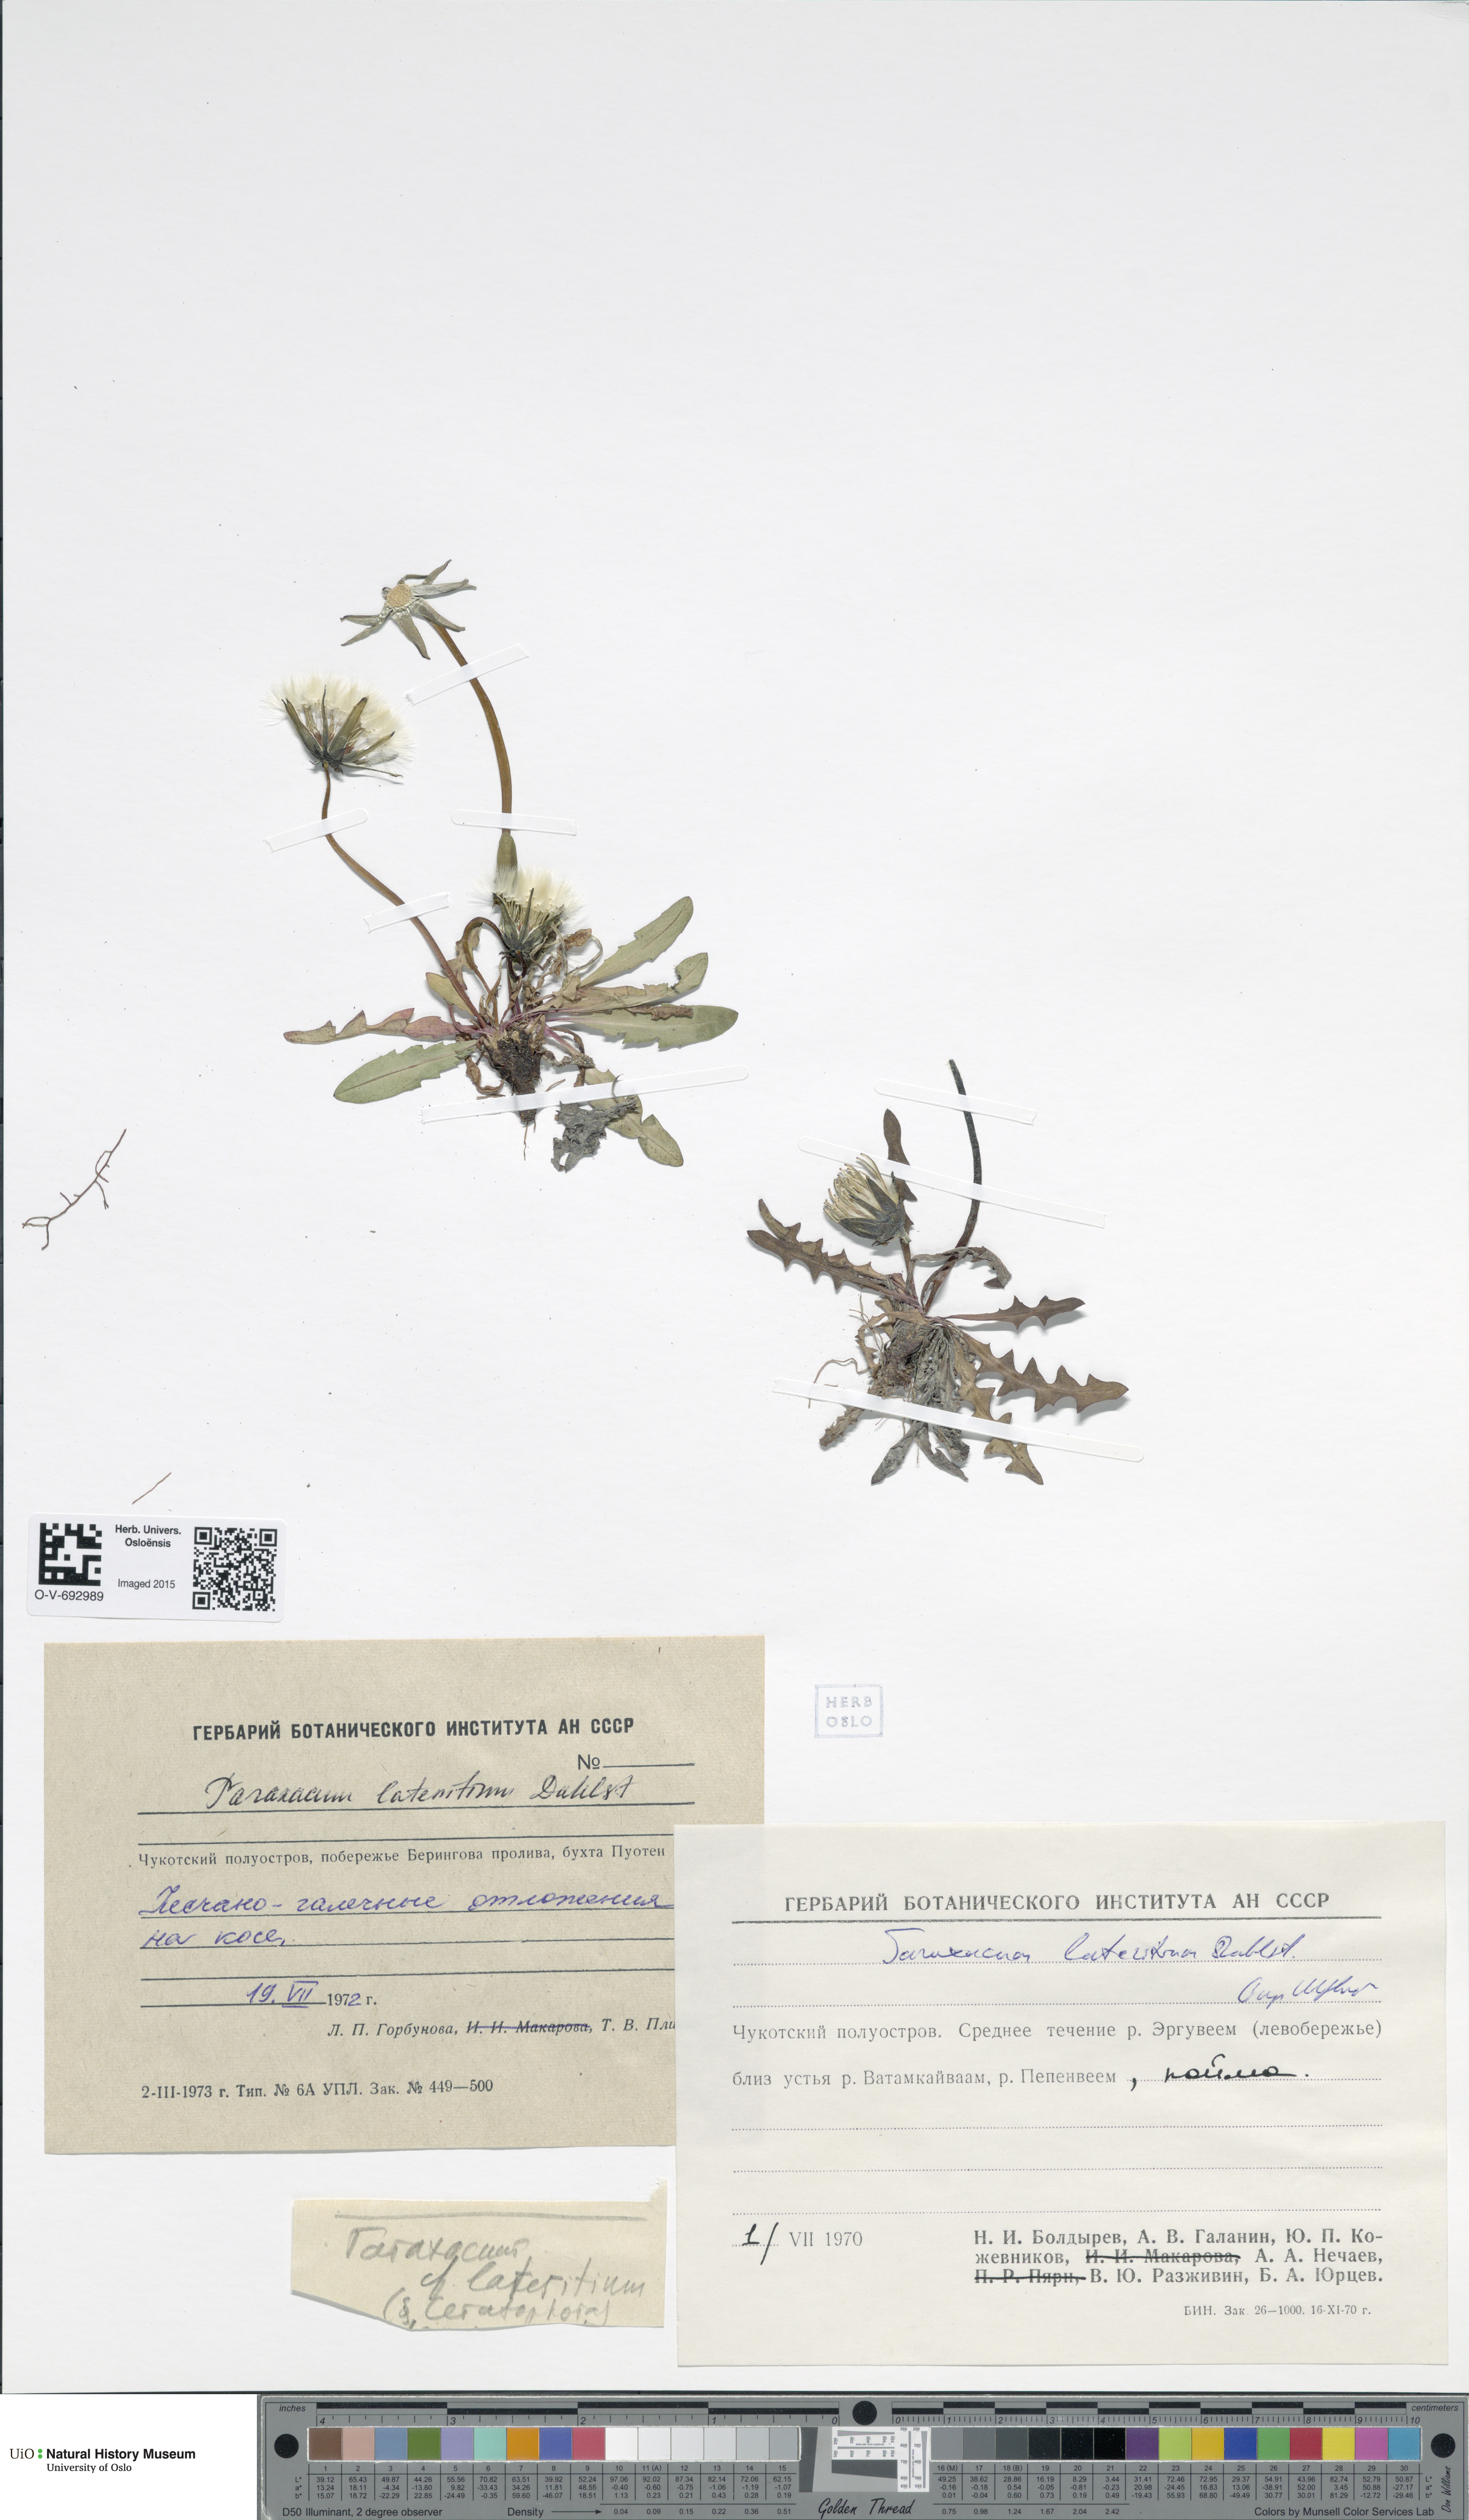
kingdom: Plantae
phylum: Tracheophyta
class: Magnoliopsida
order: Asterales
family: Asteraceae
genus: Taraxacum
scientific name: Taraxacum ceratophorum
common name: Horn-bearing dandelion
